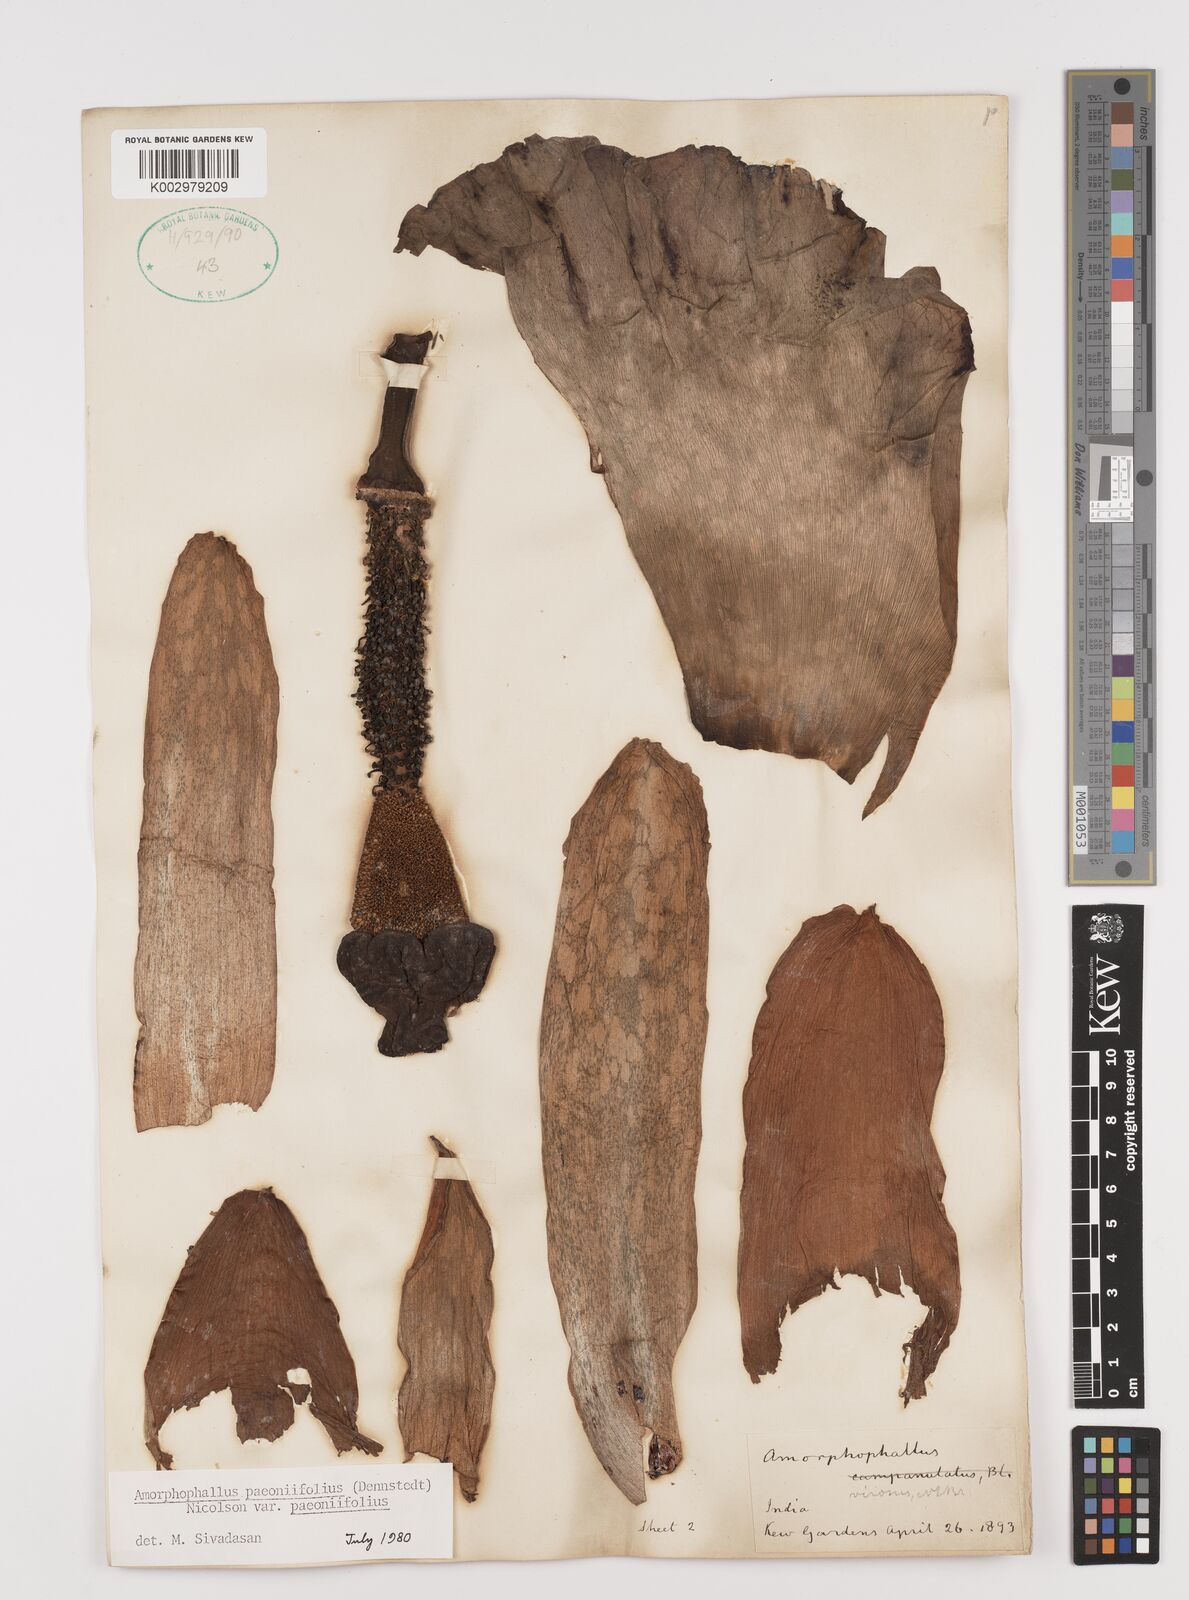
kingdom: Plantae
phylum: Tracheophyta
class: Liliopsida
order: Alismatales
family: Araceae
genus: Amorphophallus
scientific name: Amorphophallus paeoniifolius
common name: Telinga-potato
